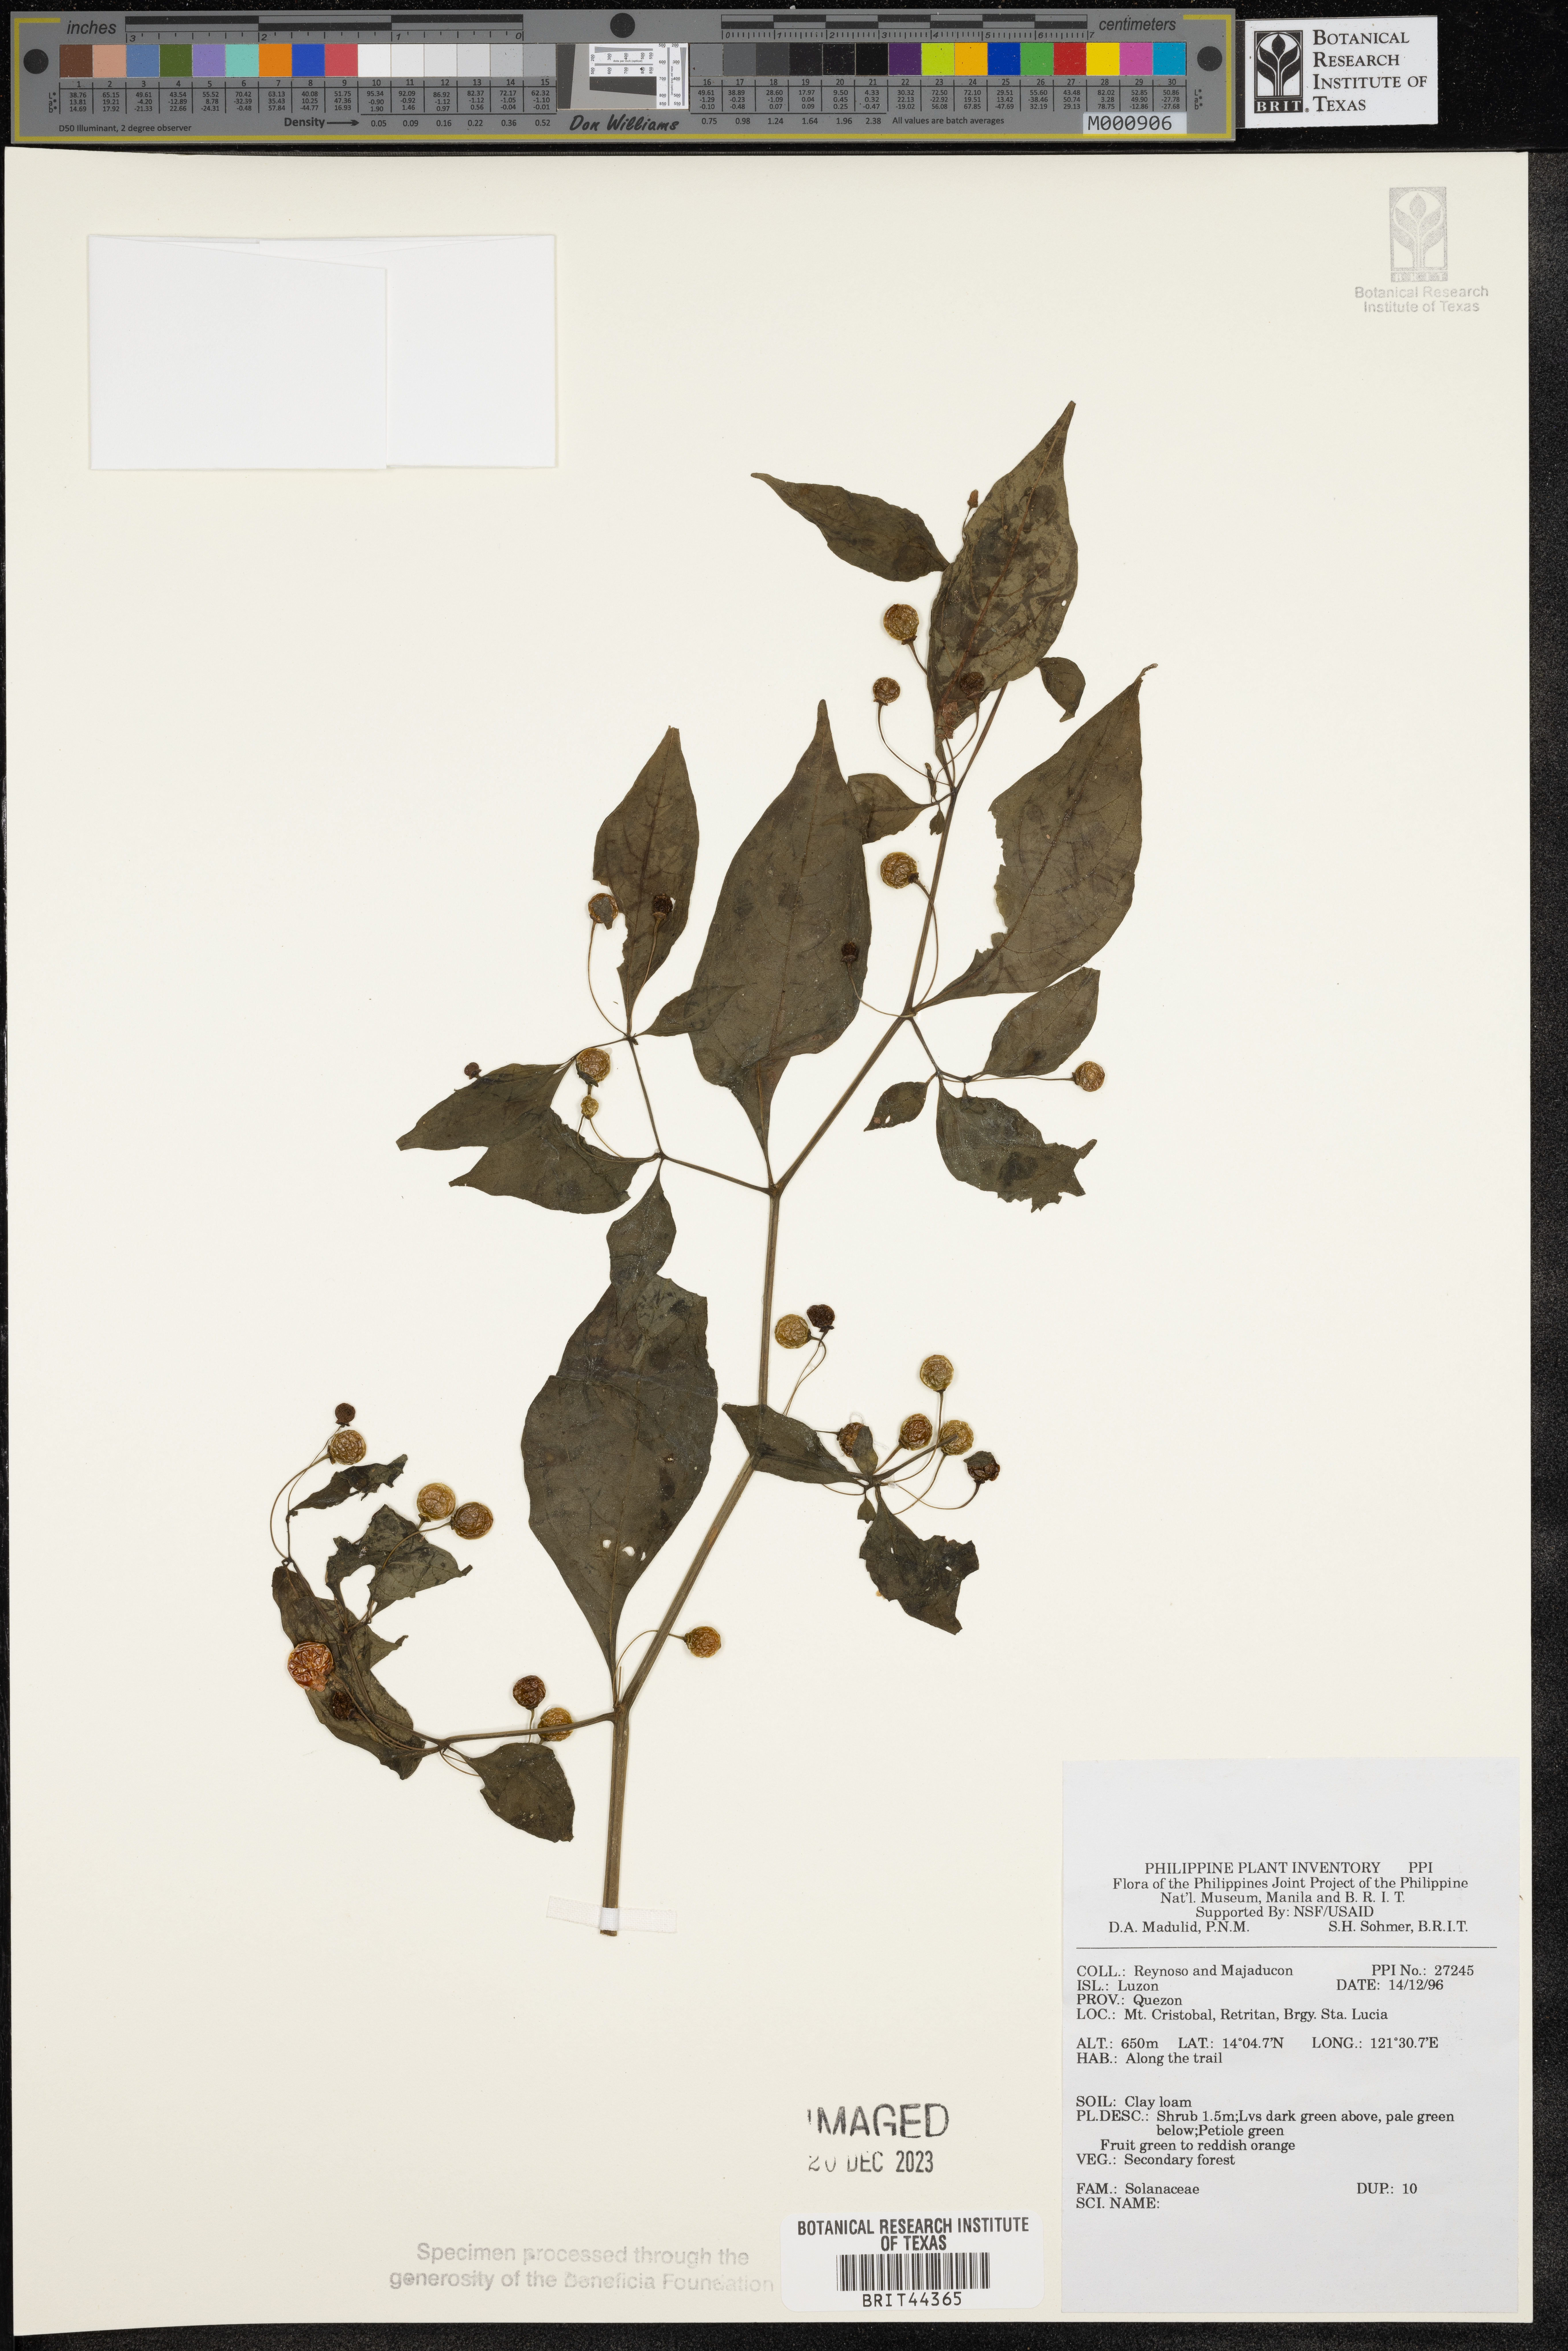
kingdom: Plantae
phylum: Tracheophyta
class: Magnoliopsida
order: Solanales
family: Solanaceae
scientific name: Solanaceae
